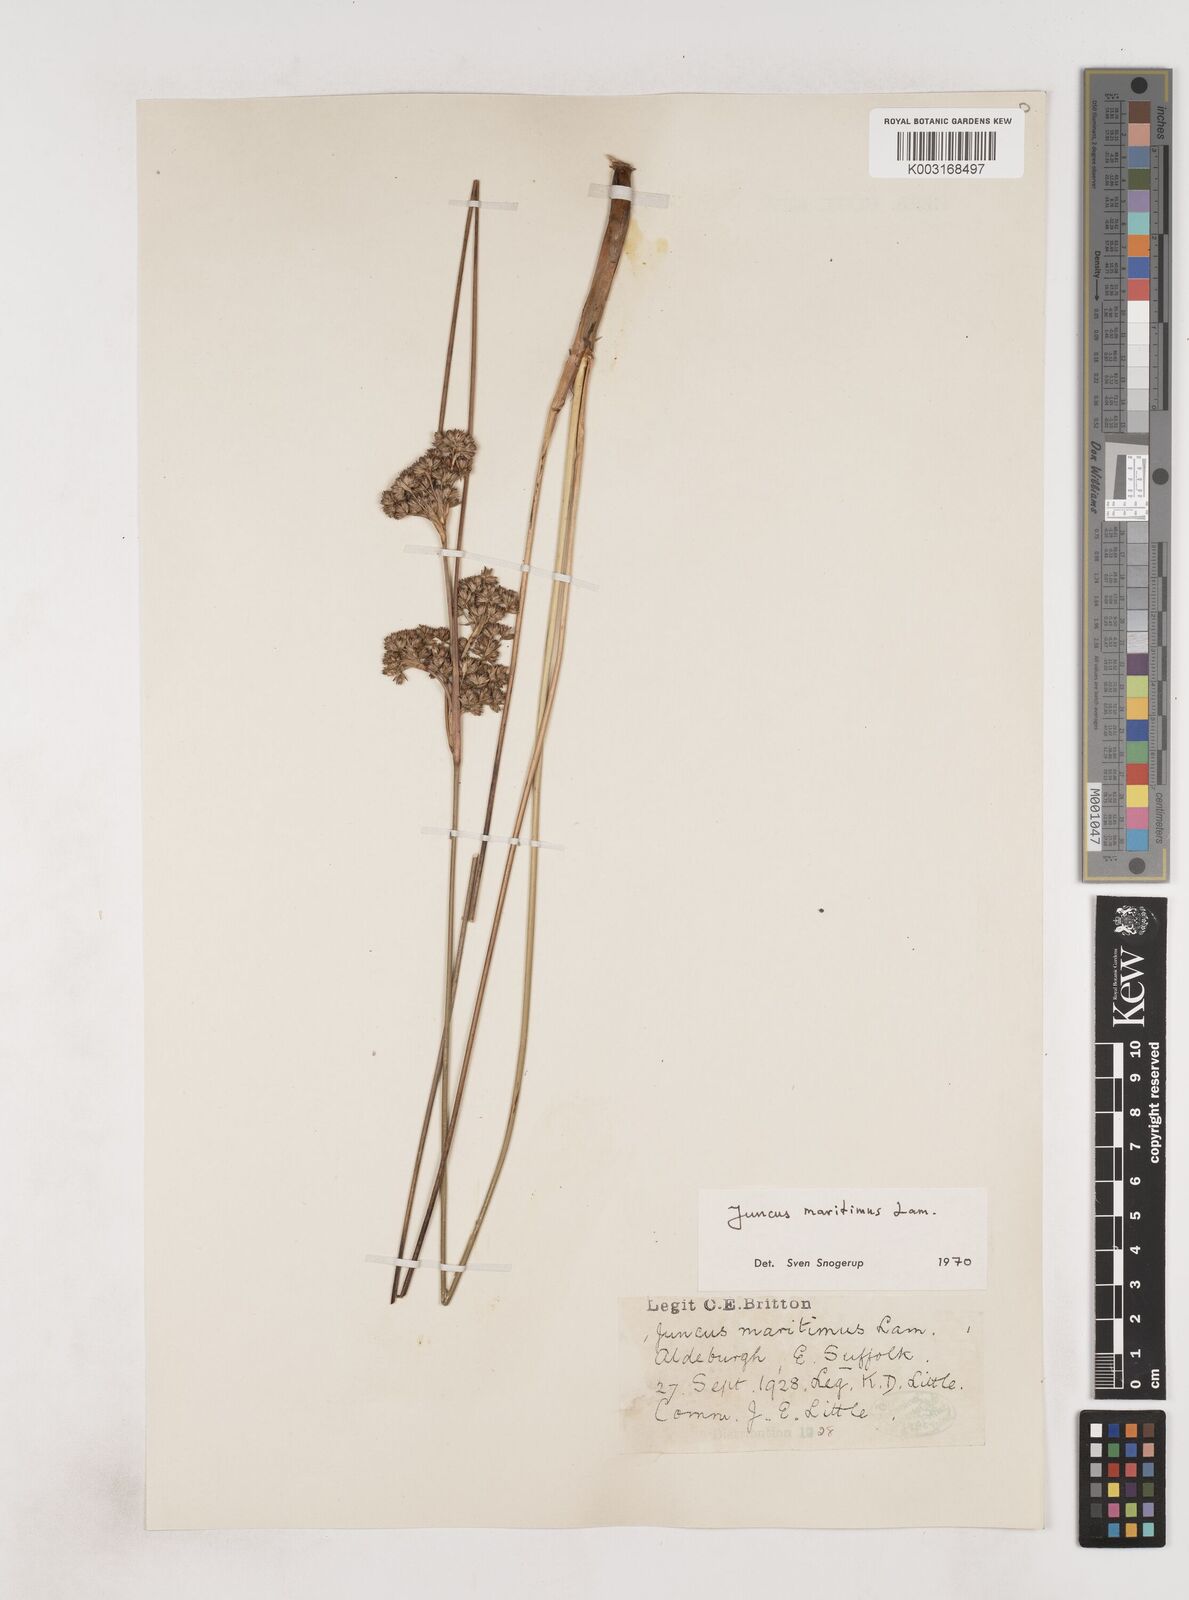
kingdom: Plantae
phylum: Tracheophyta
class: Liliopsida
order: Poales
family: Juncaceae
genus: Juncus
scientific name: Juncus maritimus
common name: Sea rush
